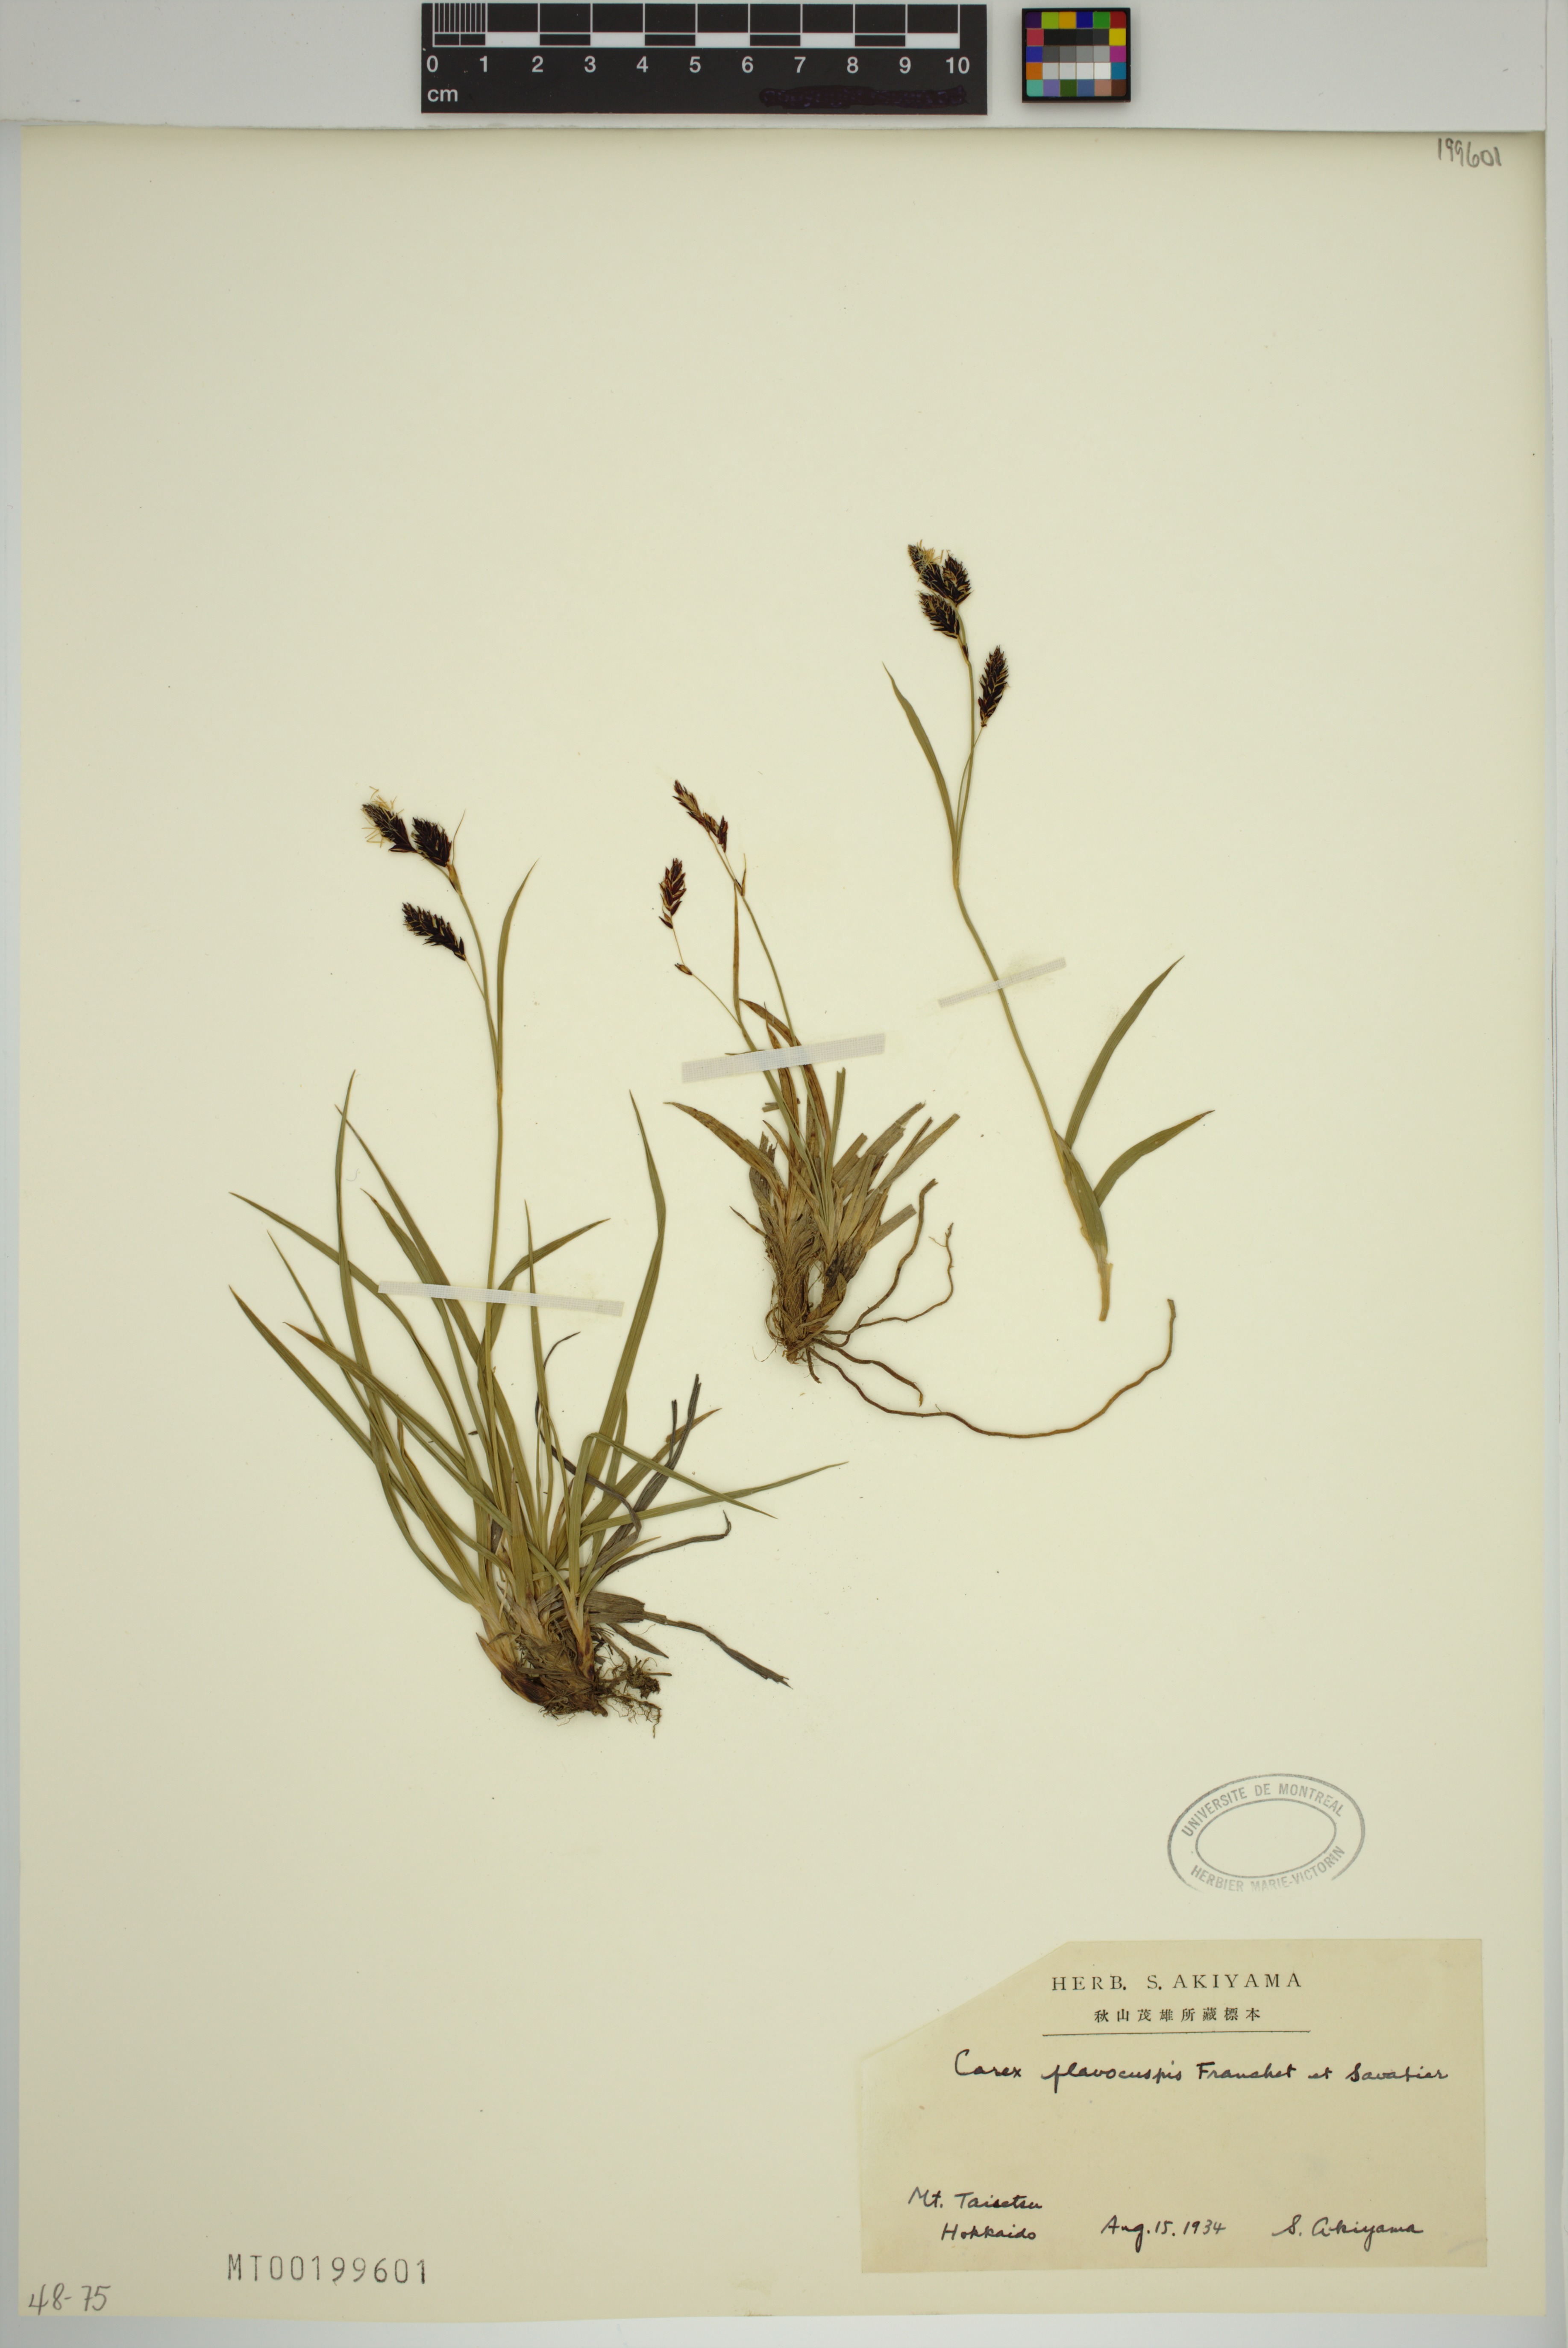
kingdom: Plantae
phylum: Tracheophyta
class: Liliopsida
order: Poales
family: Cyperaceae
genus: Carex
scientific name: Carex flavocuspis
